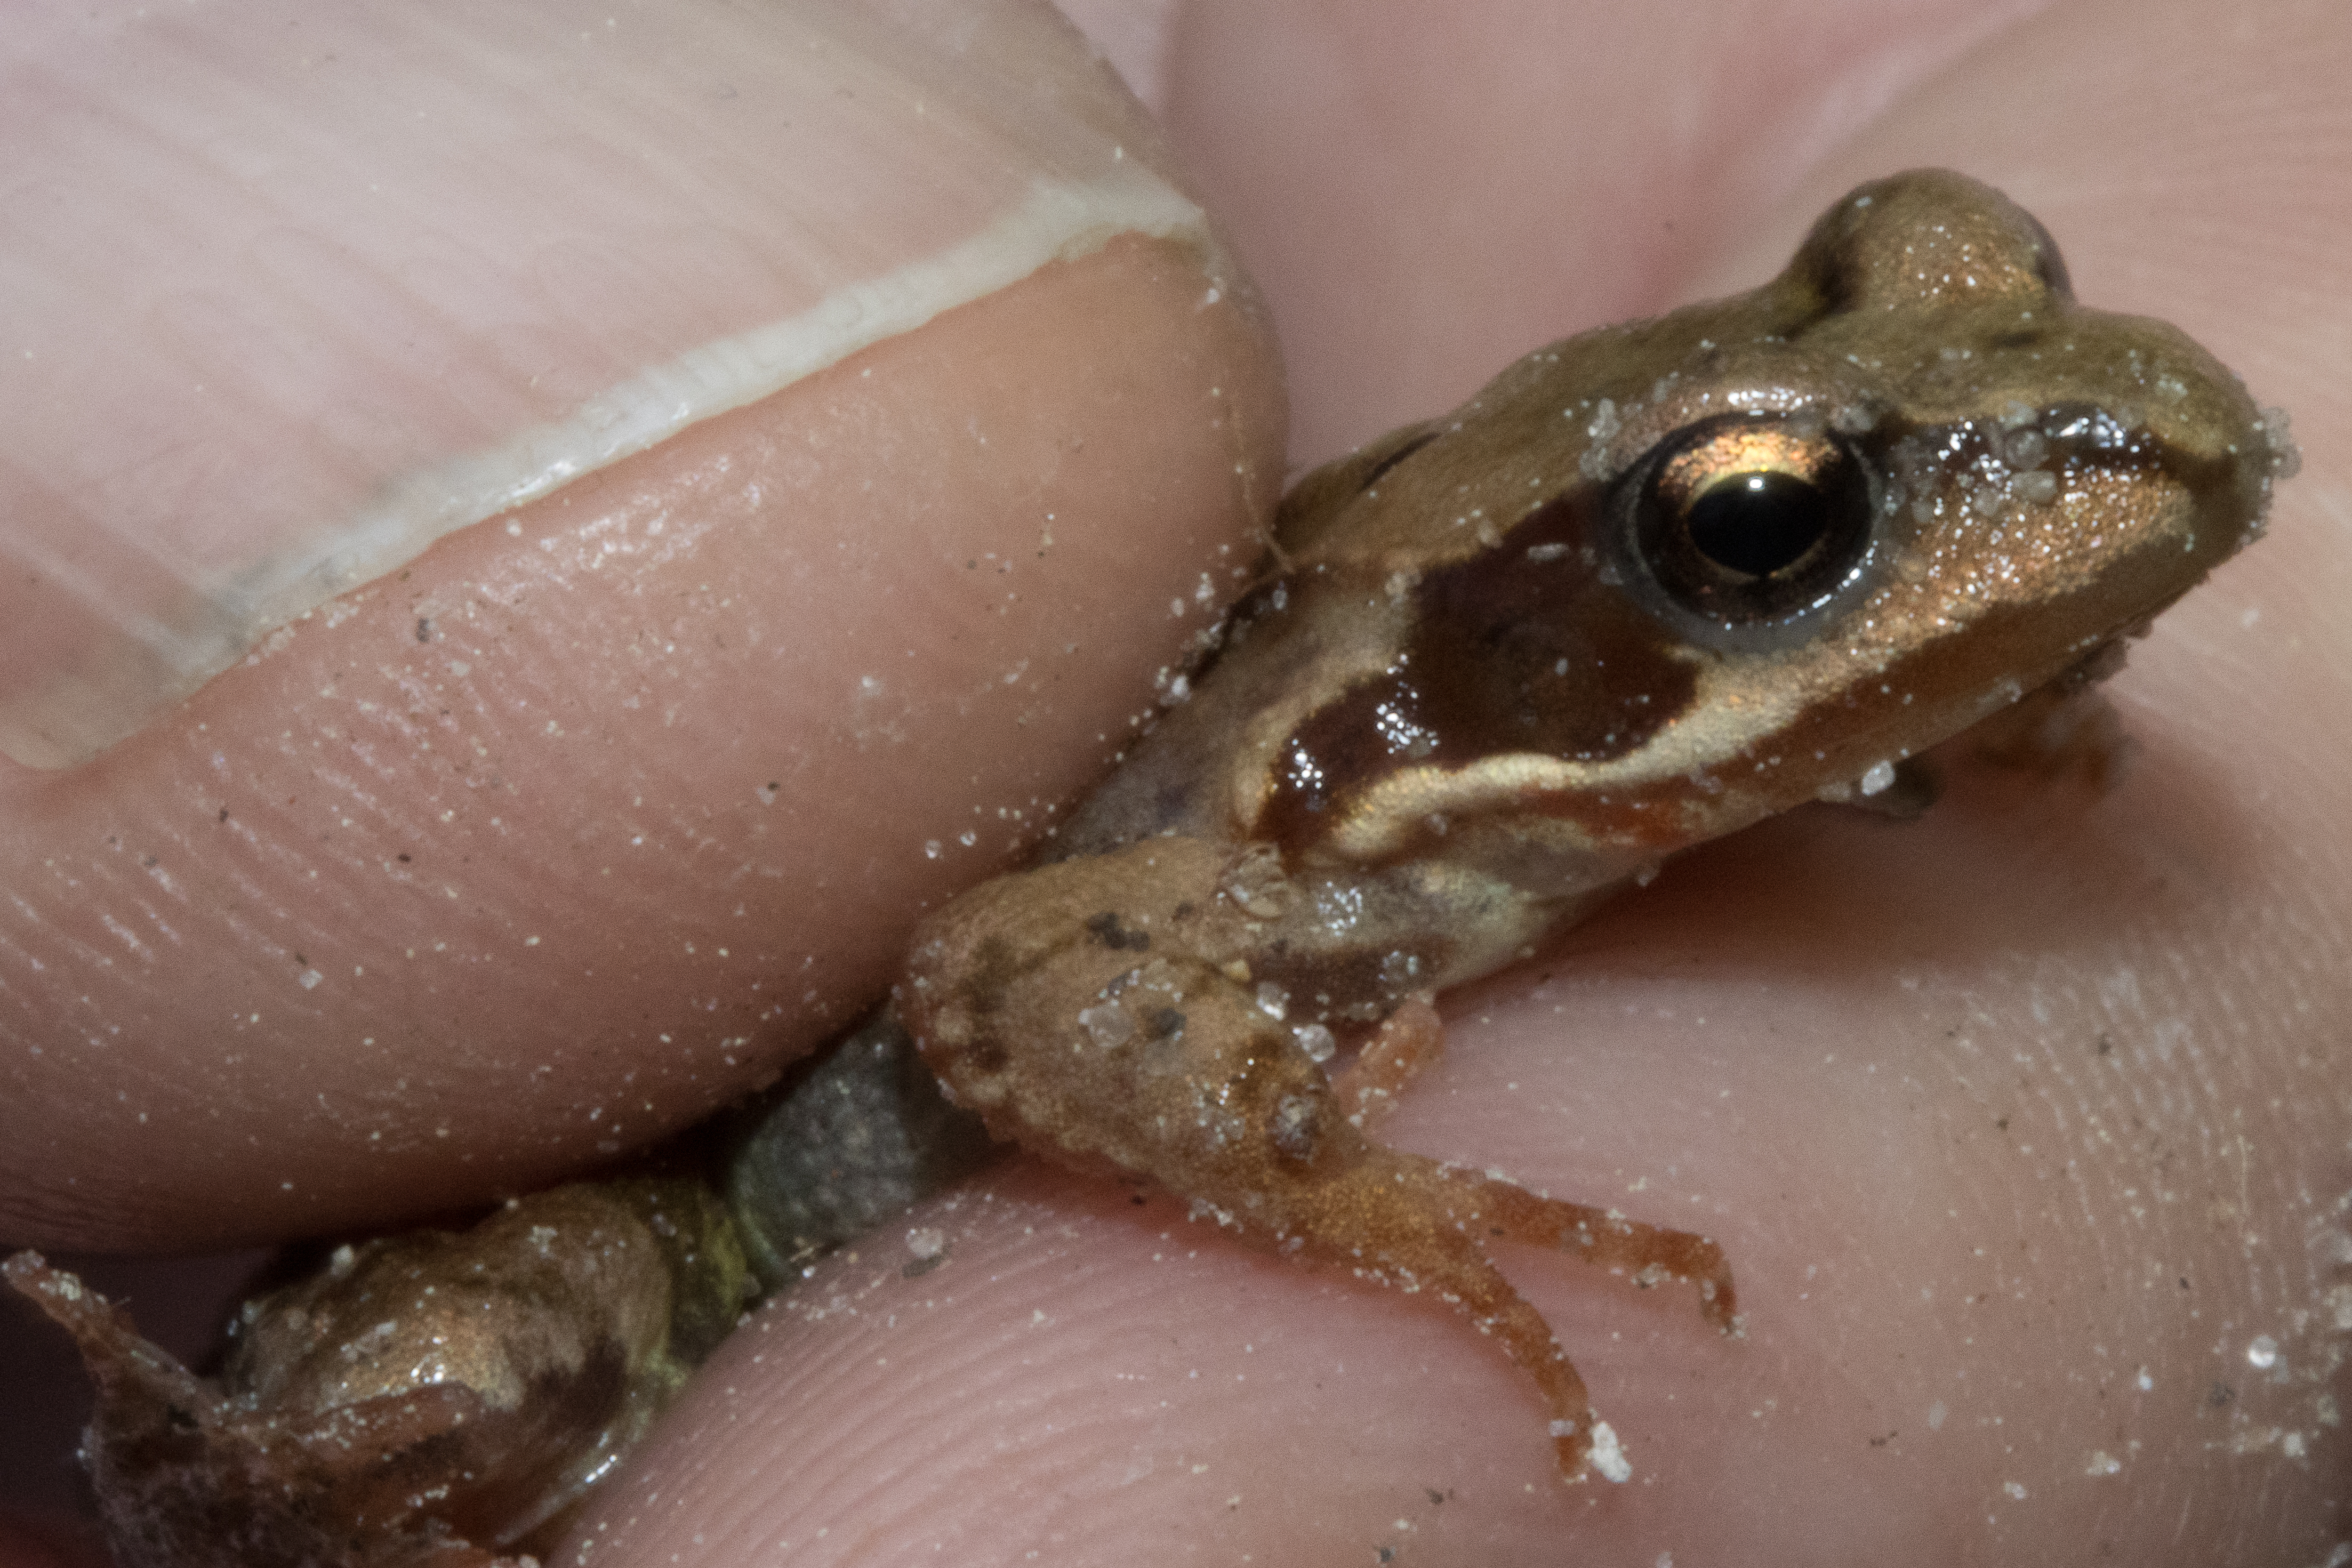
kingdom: Animalia
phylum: Chordata
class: Amphibia
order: Anura
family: Ranidae
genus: Rana
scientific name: Rana temporaria
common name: Butsnudet frø
